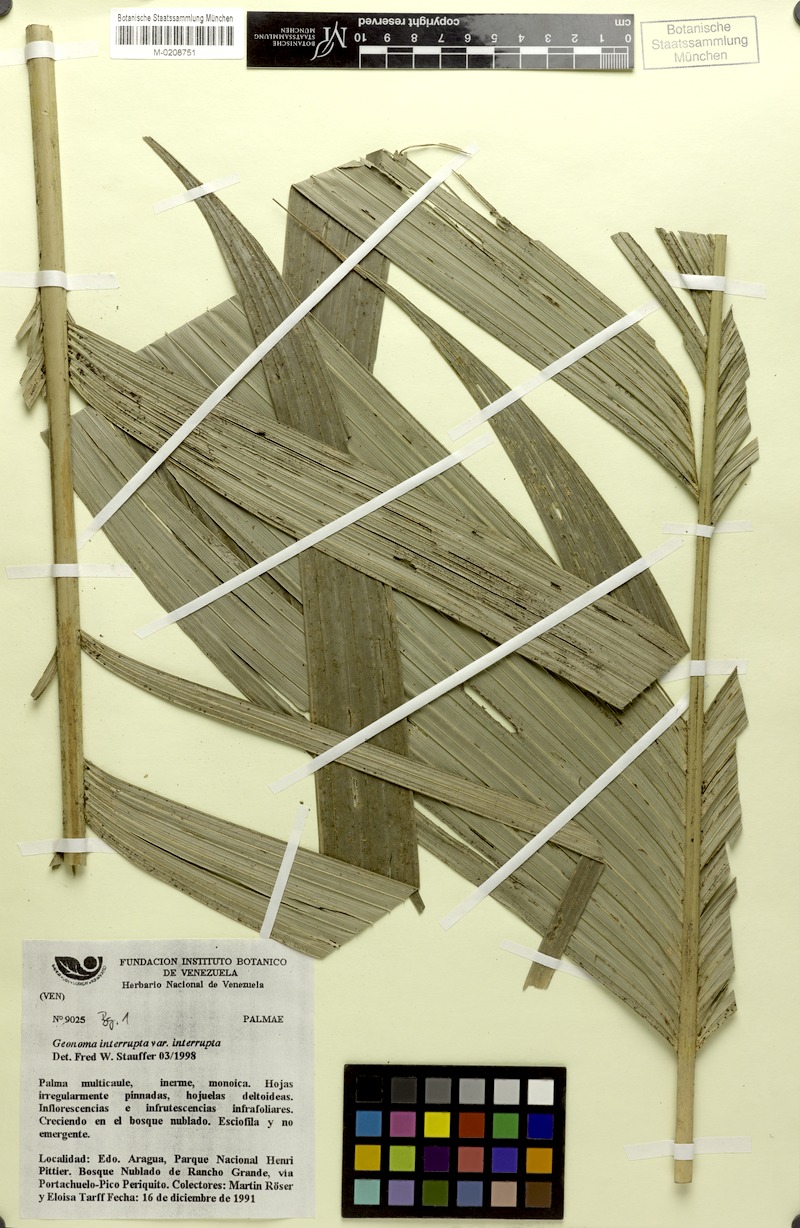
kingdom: Plantae
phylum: Tracheophyta
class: Liliopsida
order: Arecales
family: Arecaceae
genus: Geonoma
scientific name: Geonoma interrupta
